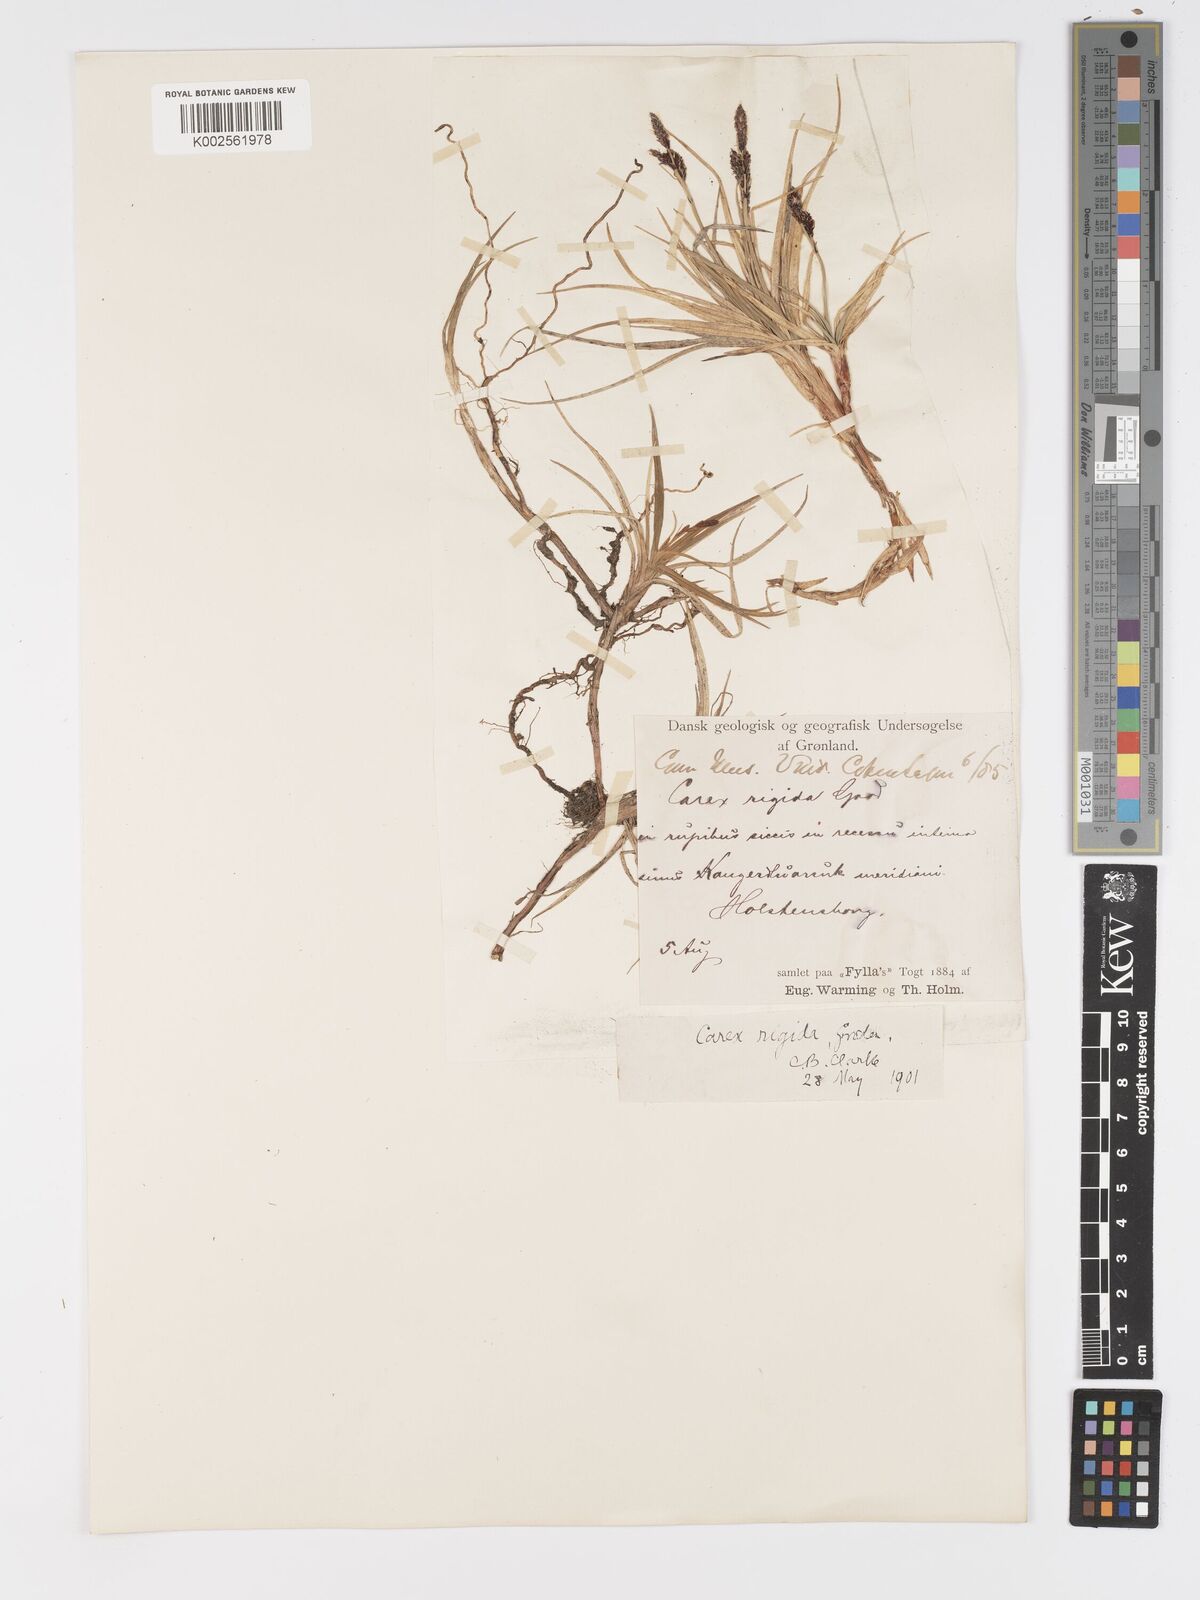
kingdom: Plantae
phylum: Tracheophyta
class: Liliopsida
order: Poales
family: Cyperaceae
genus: Carex
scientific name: Carex bigelowii
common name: Stiff sedge
